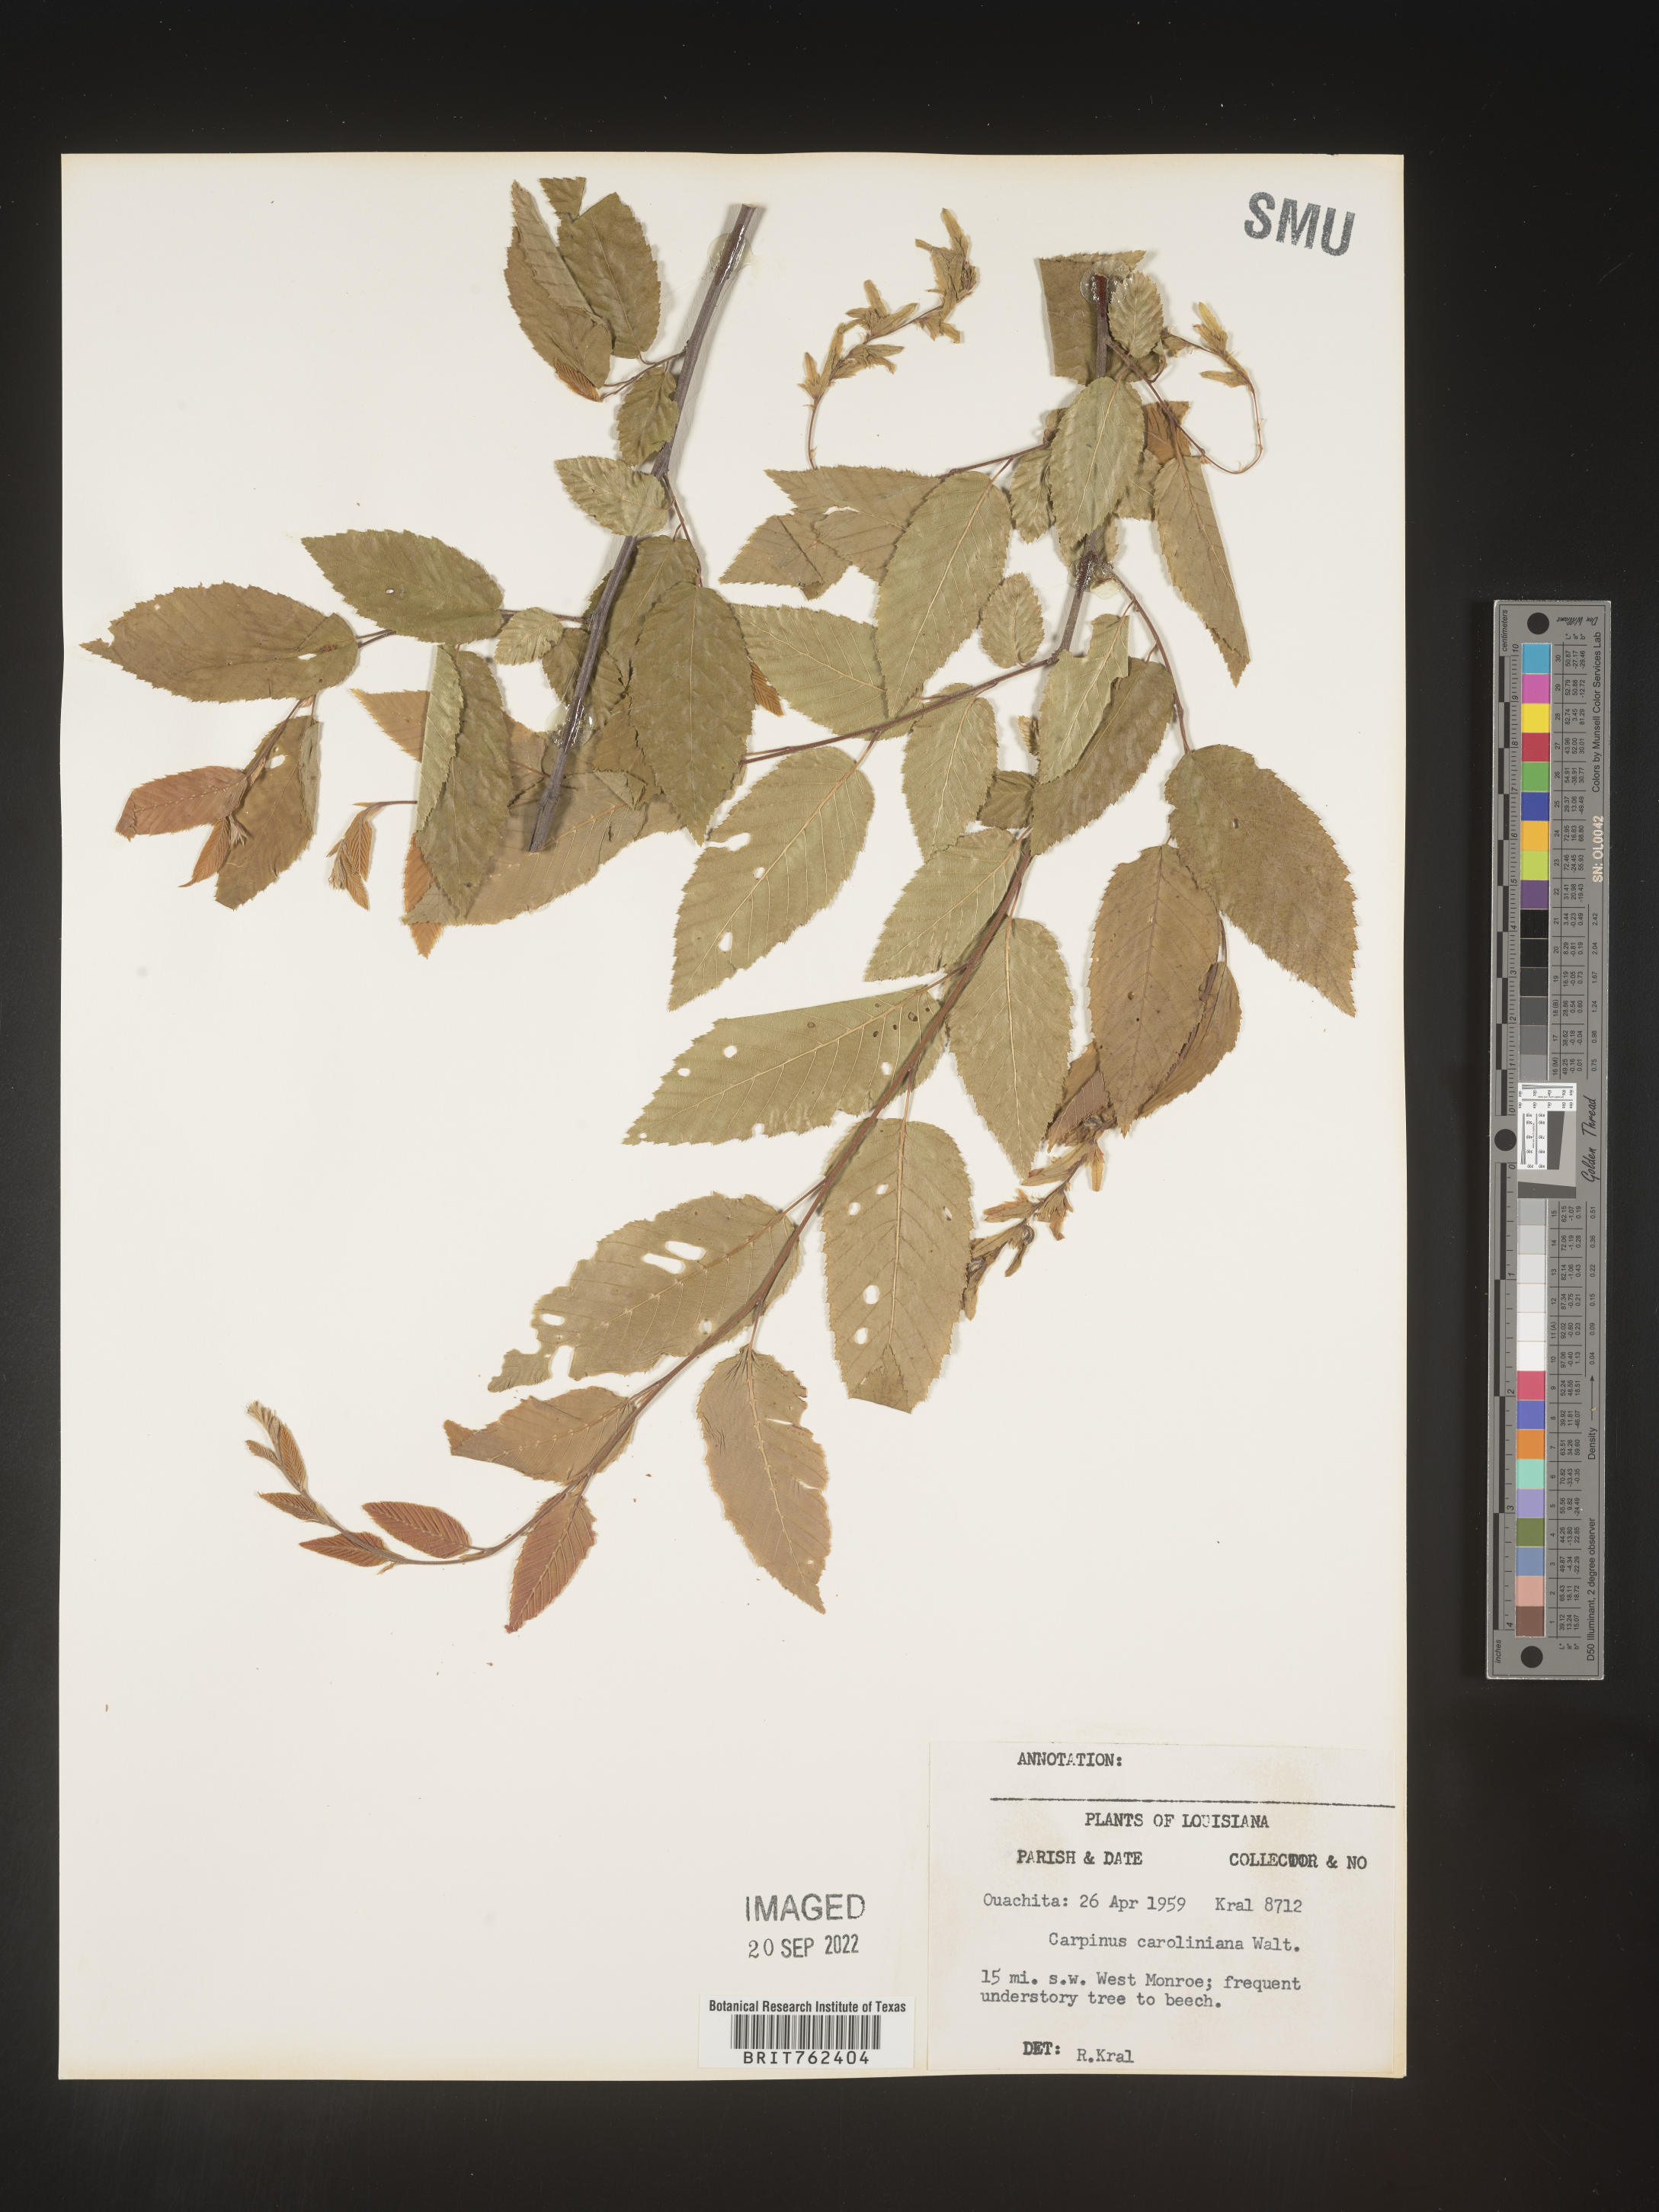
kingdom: Plantae
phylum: Tracheophyta
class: Magnoliopsida
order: Fagales
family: Betulaceae
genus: Carpinus
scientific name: Carpinus caroliniana
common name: American hornbeam
